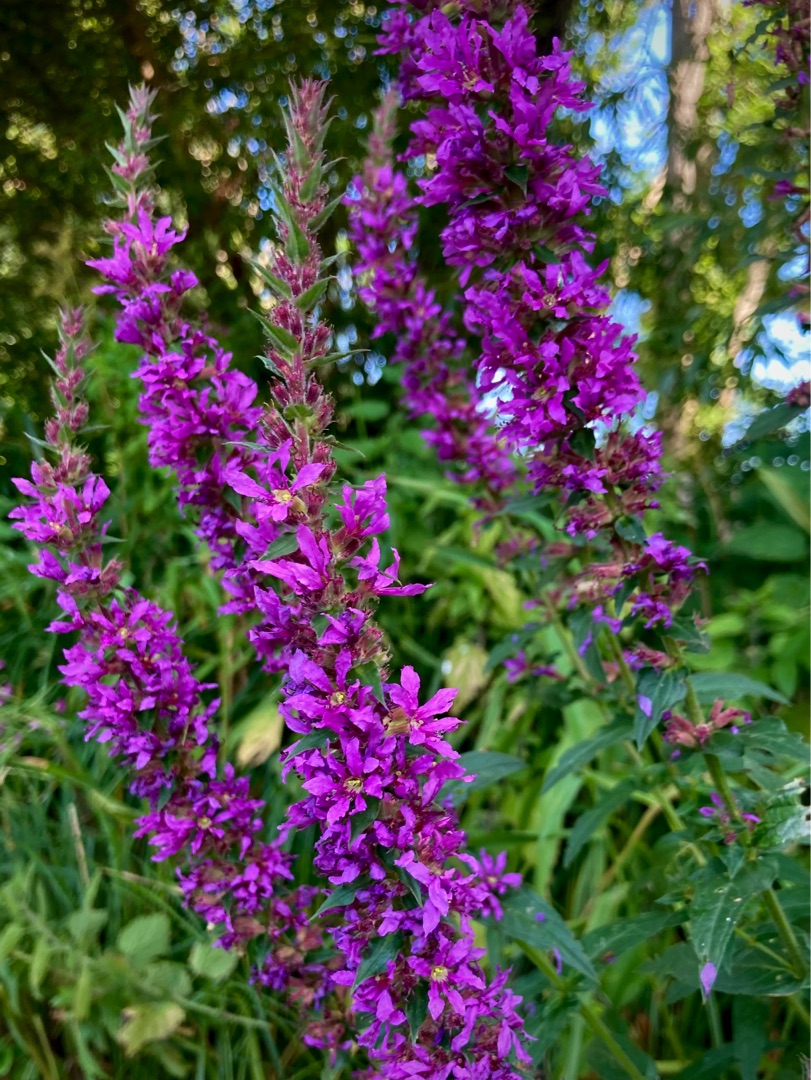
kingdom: Plantae
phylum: Tracheophyta
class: Magnoliopsida
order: Myrtales
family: Lythraceae
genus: Lythrum
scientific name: Lythrum salicaria
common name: Kattehale
